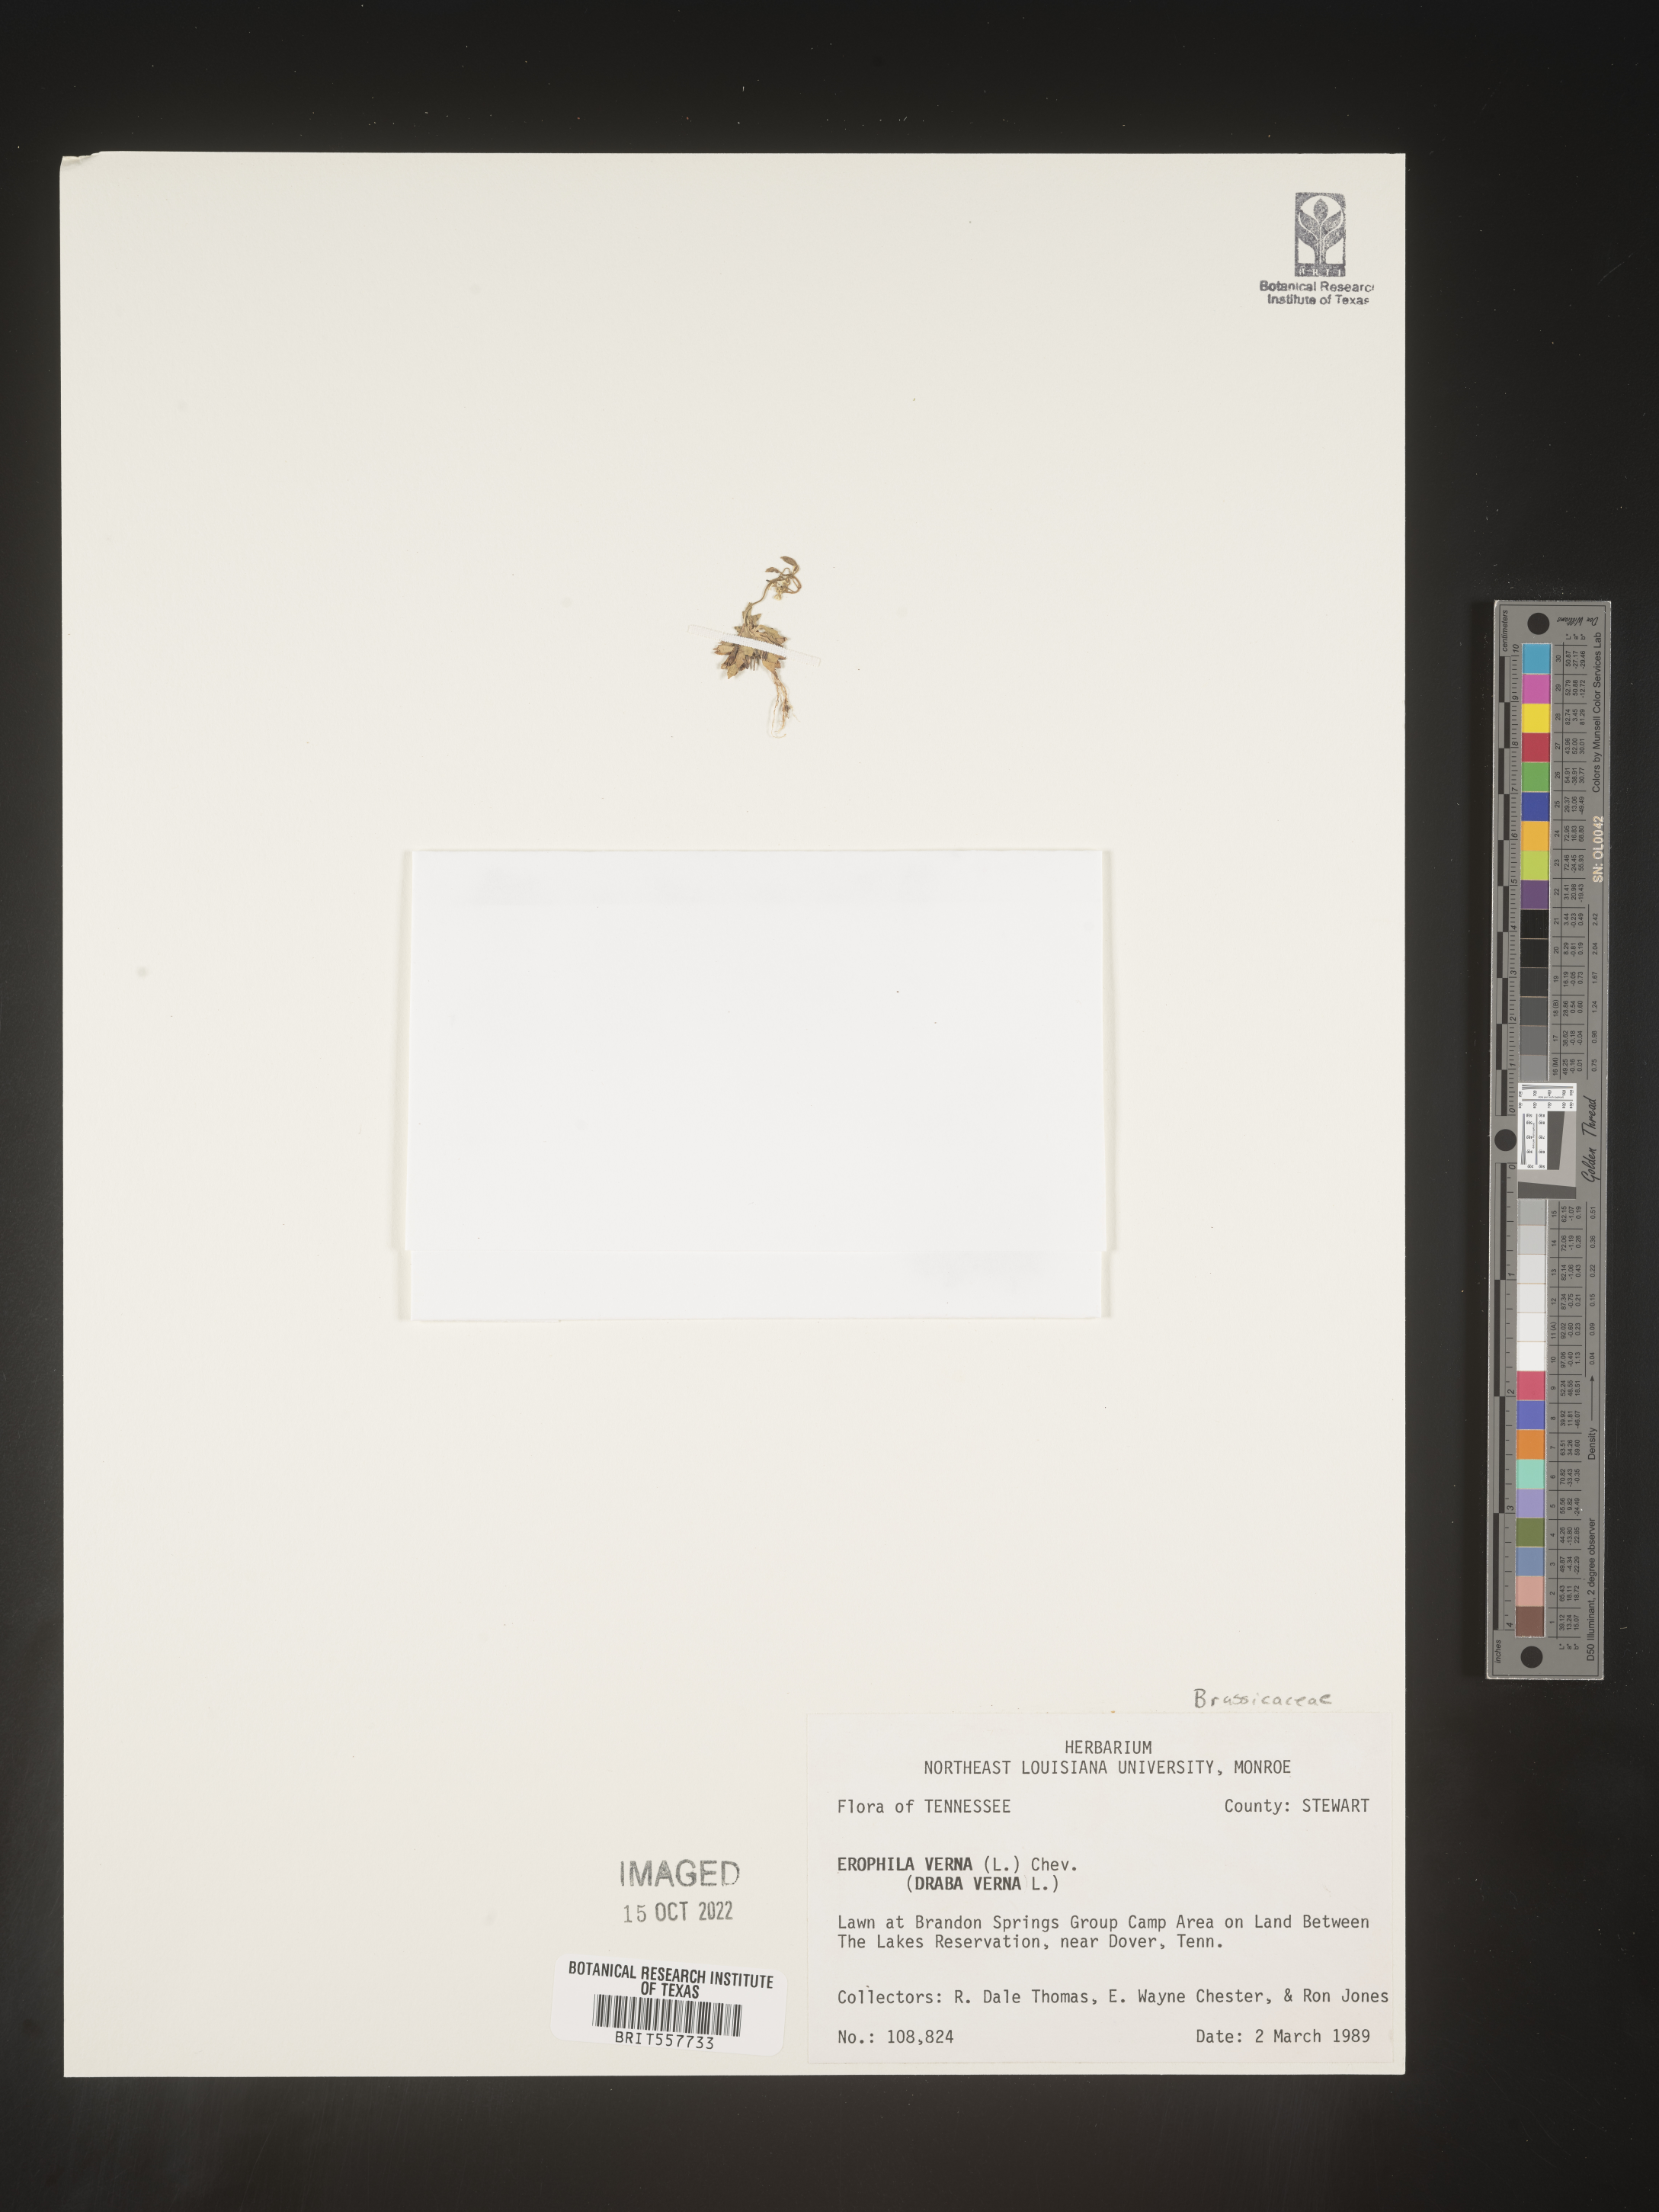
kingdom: Plantae
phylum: Tracheophyta
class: Magnoliopsida
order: Brassicales
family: Brassicaceae
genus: Draba
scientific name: Draba
